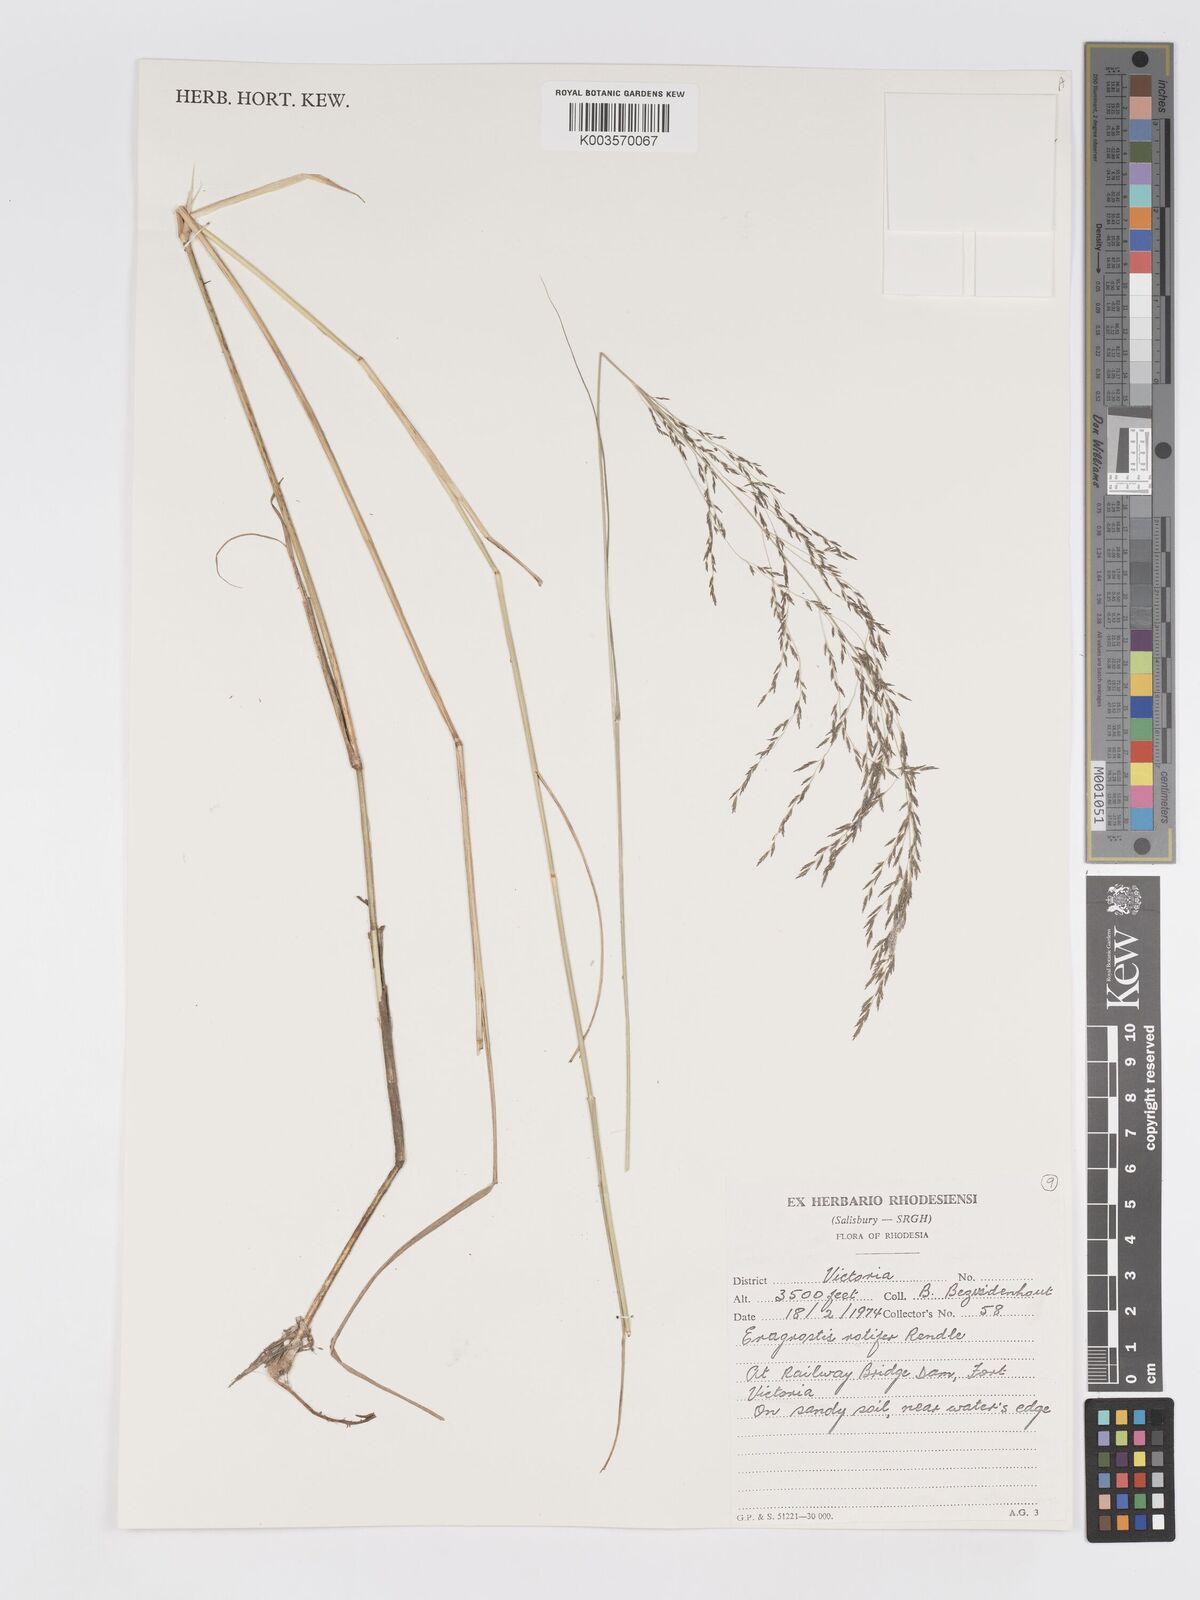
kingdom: Plantae
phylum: Tracheophyta
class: Liliopsida
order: Poales
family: Poaceae
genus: Eragrostis
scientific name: Eragrostis rotifer
